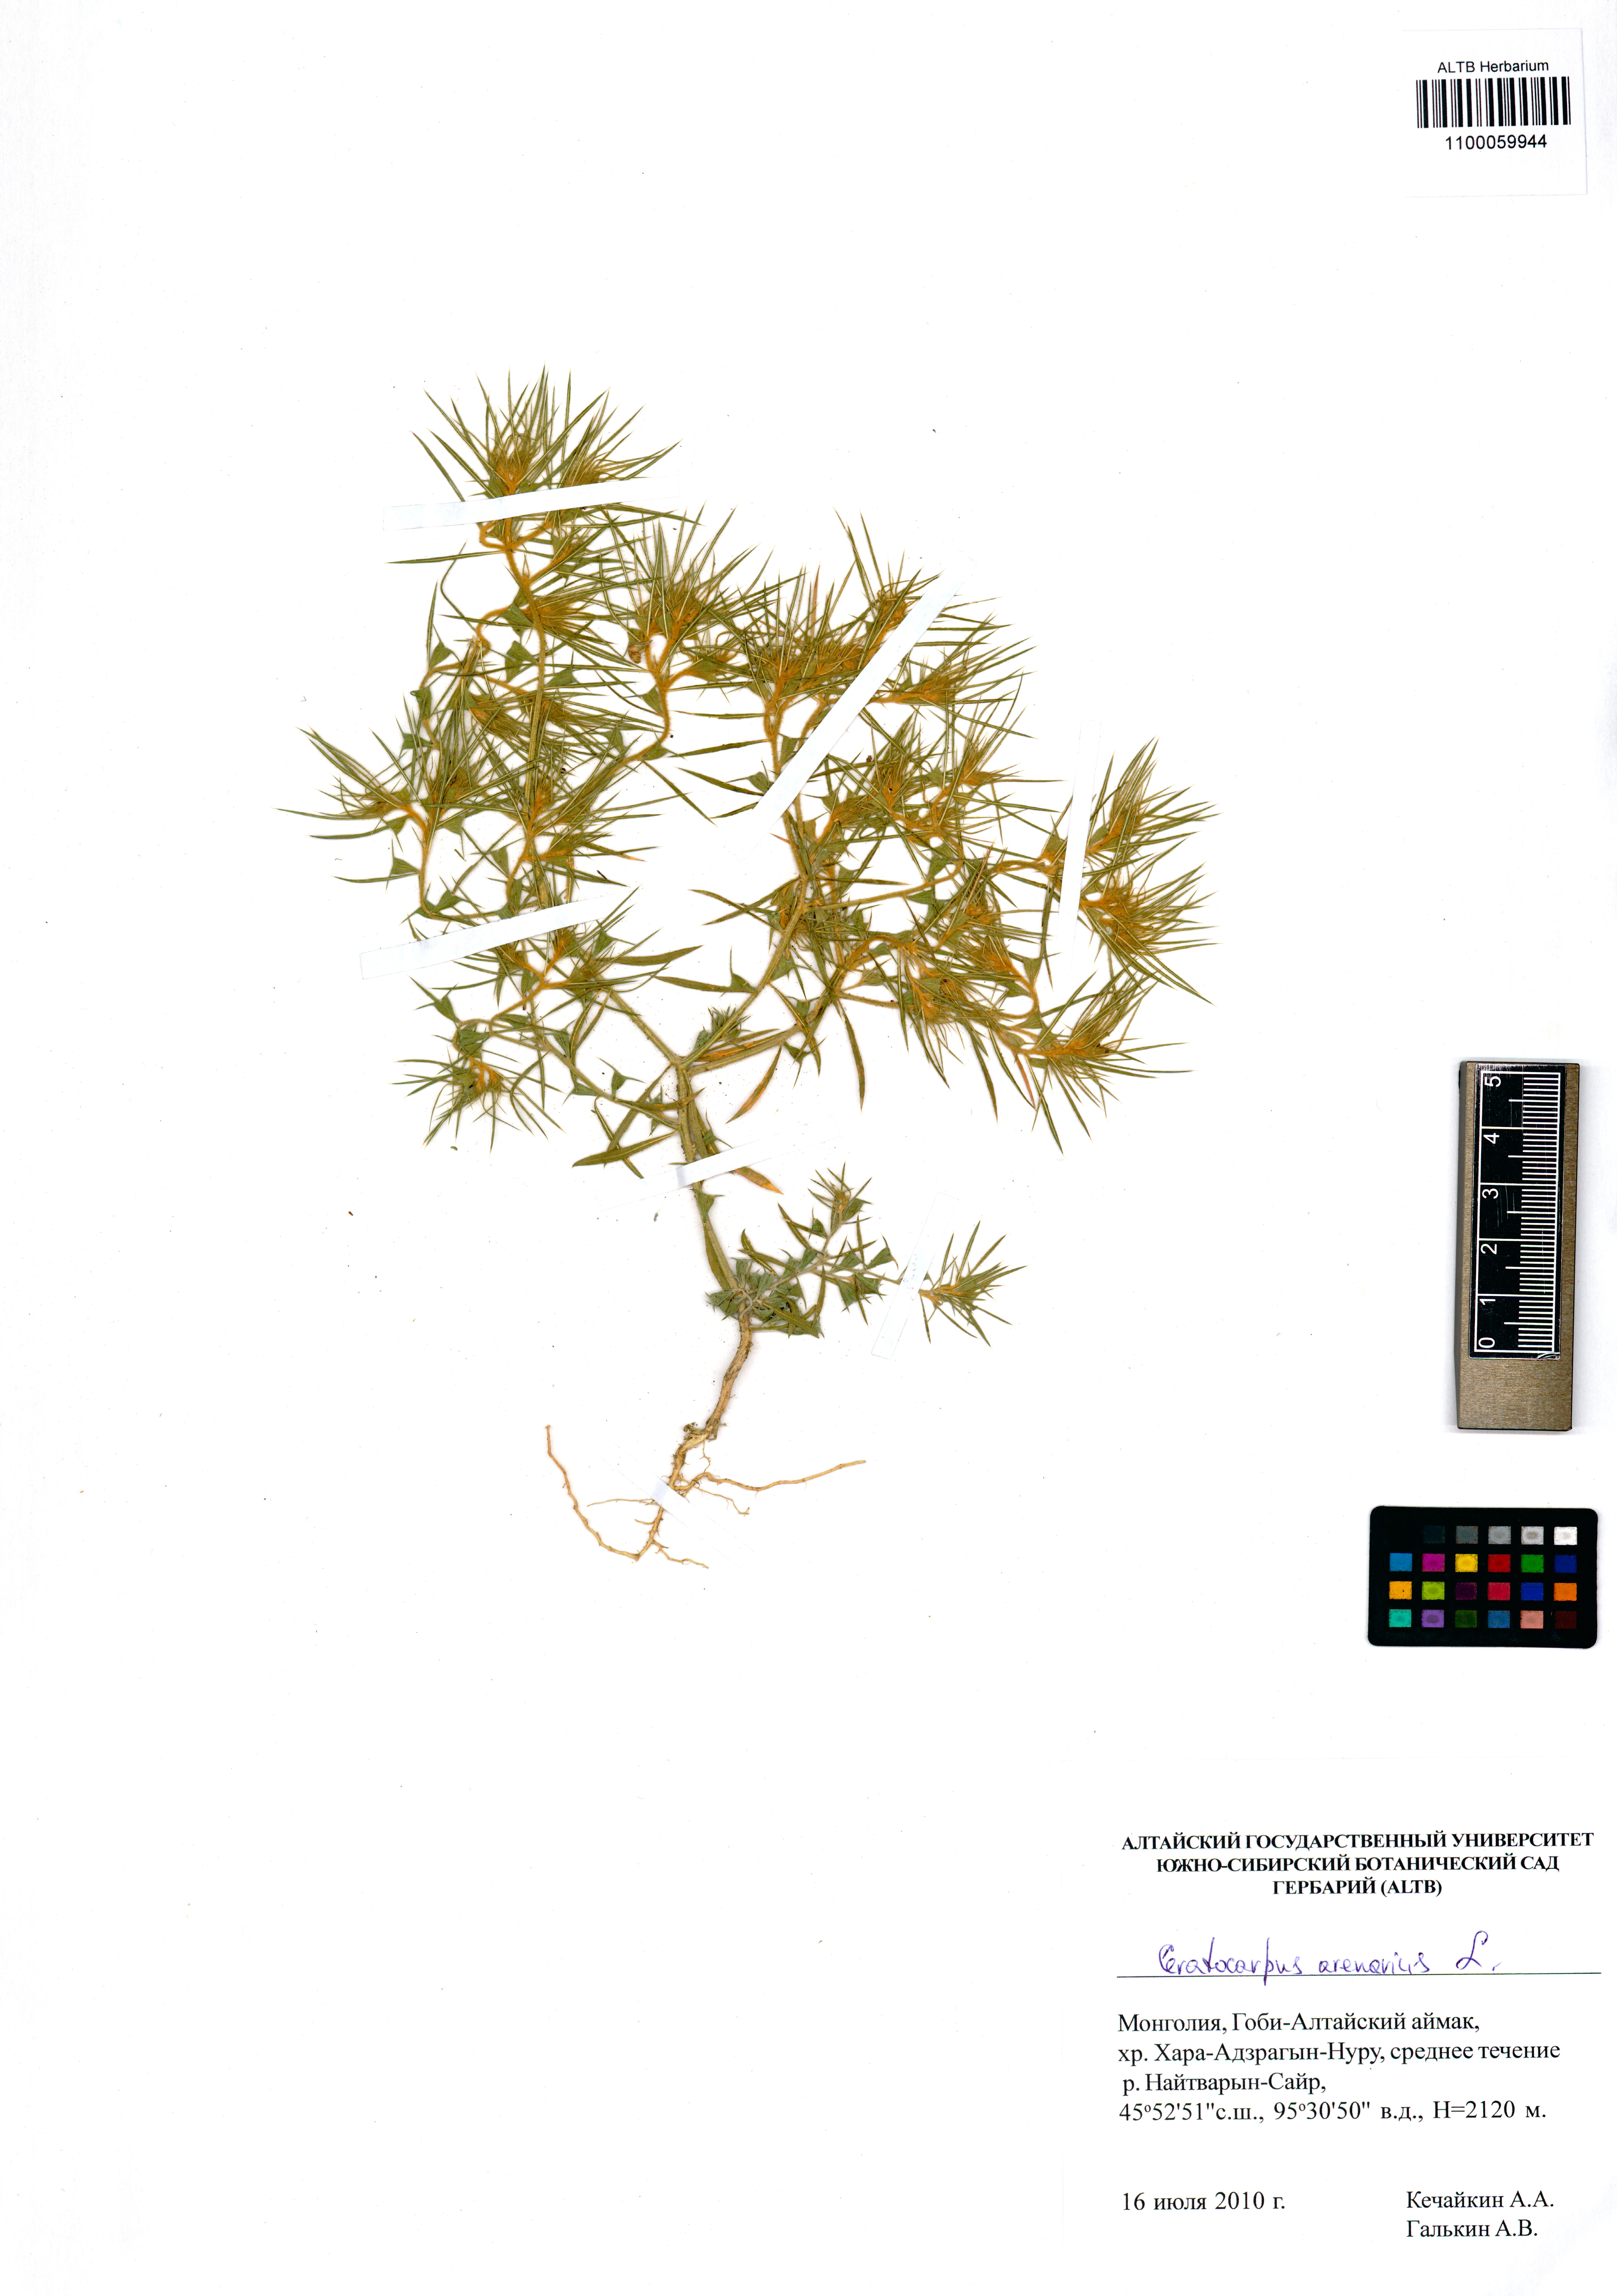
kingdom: Plantae
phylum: Tracheophyta
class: Magnoliopsida
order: Caryophyllales
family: Amaranthaceae
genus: Ceratocarpus
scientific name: Ceratocarpus arenarius
